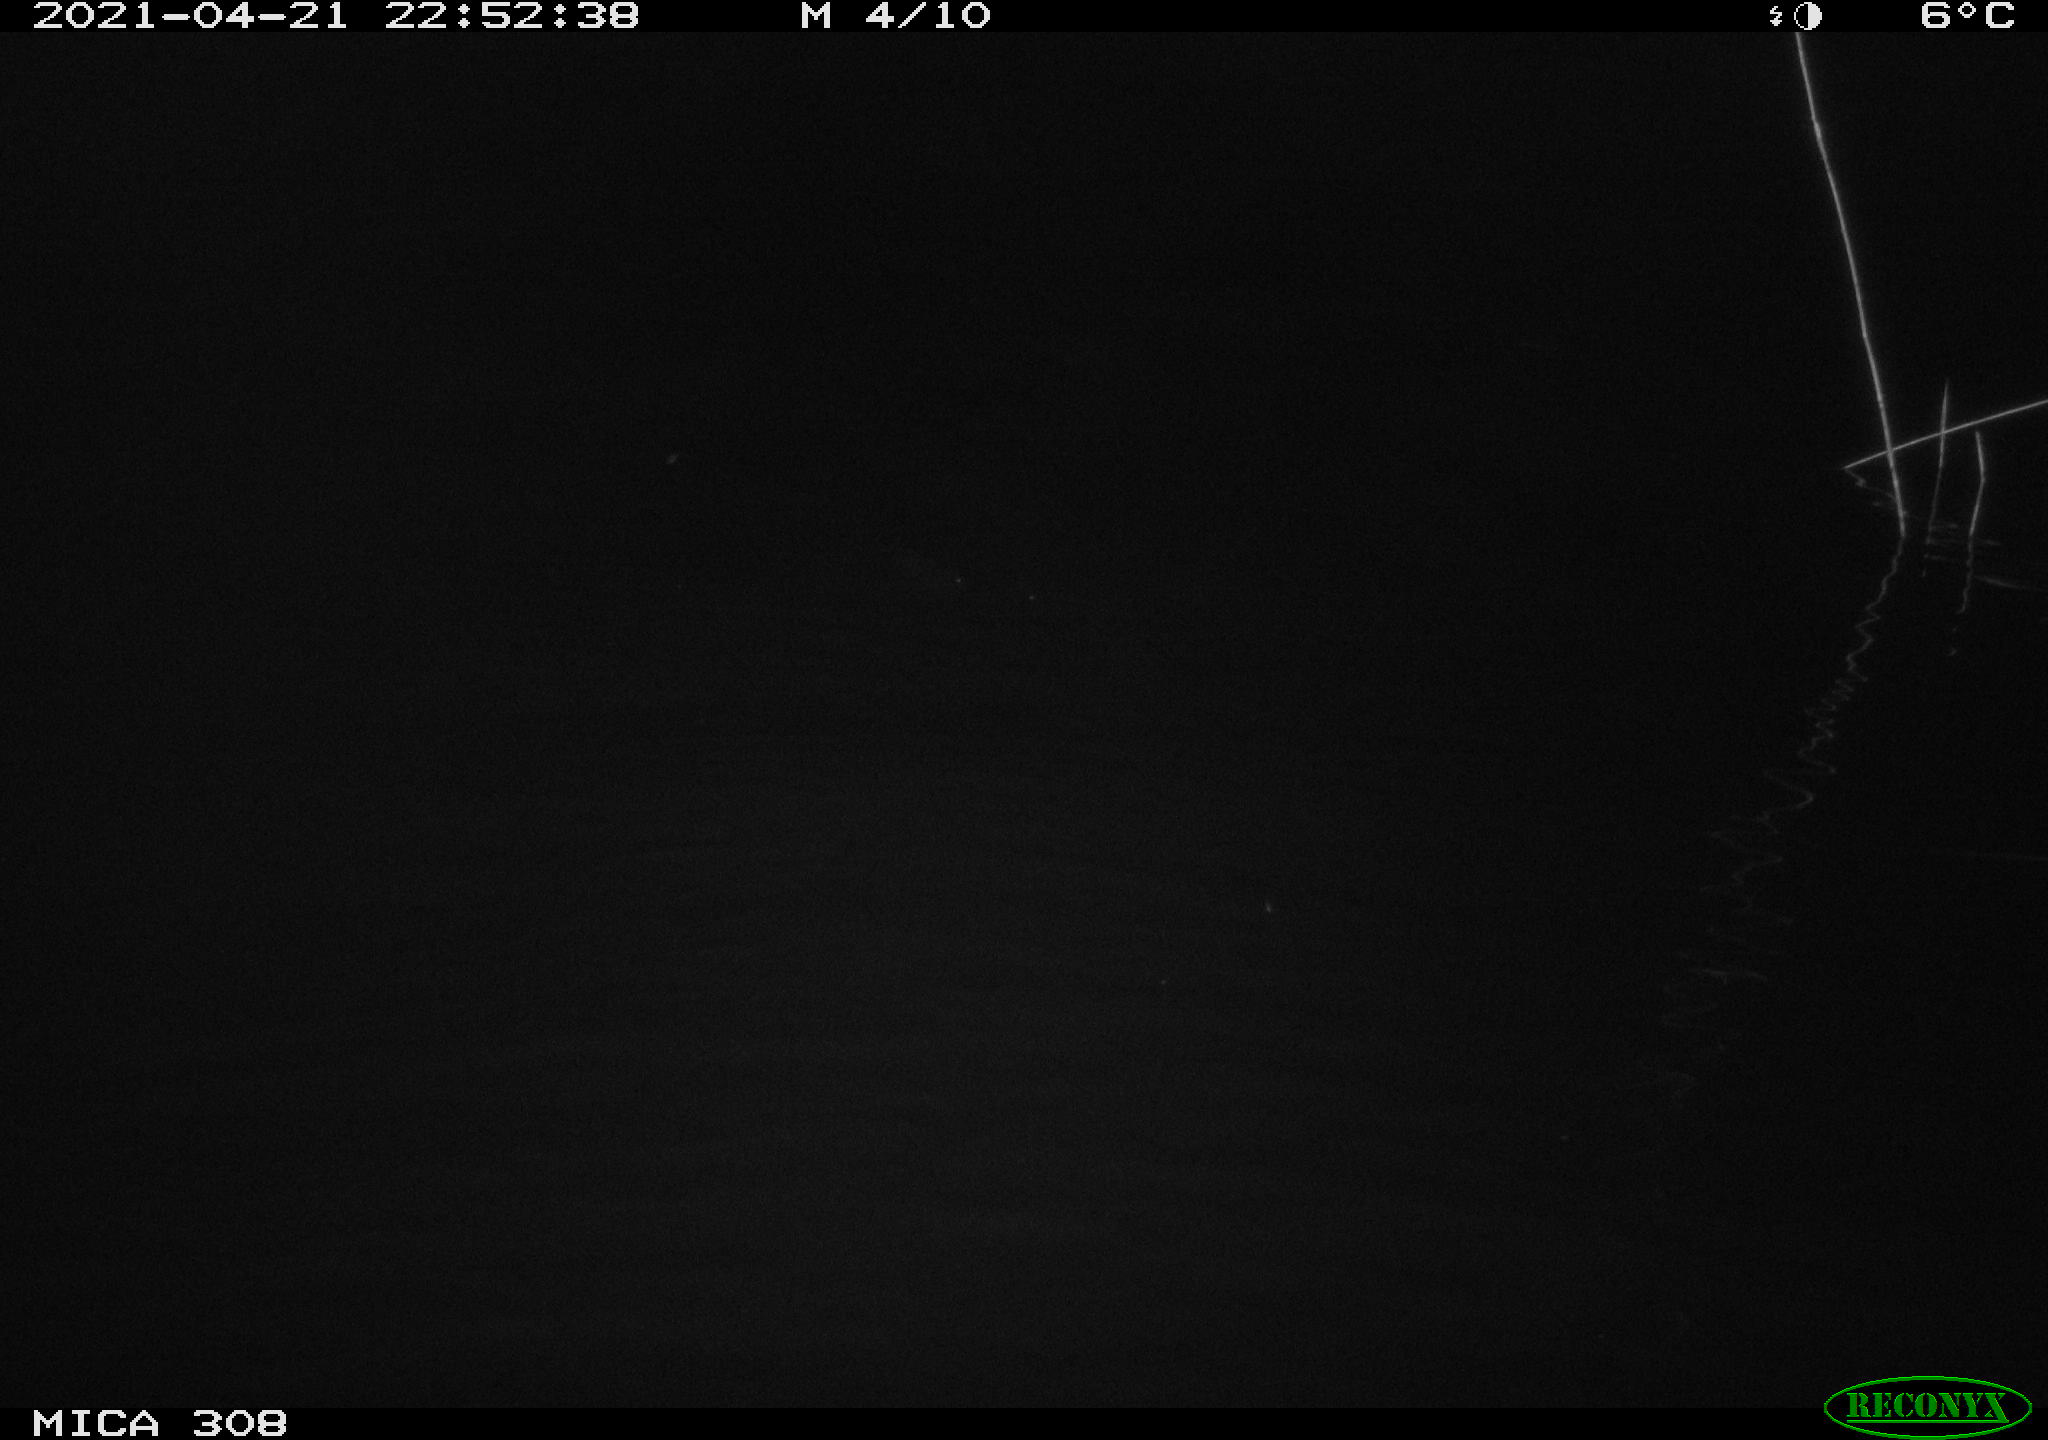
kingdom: Animalia
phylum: Chordata
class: Aves
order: Anseriformes
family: Anatidae
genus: Anas
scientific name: Anas platyrhynchos
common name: Mallard
